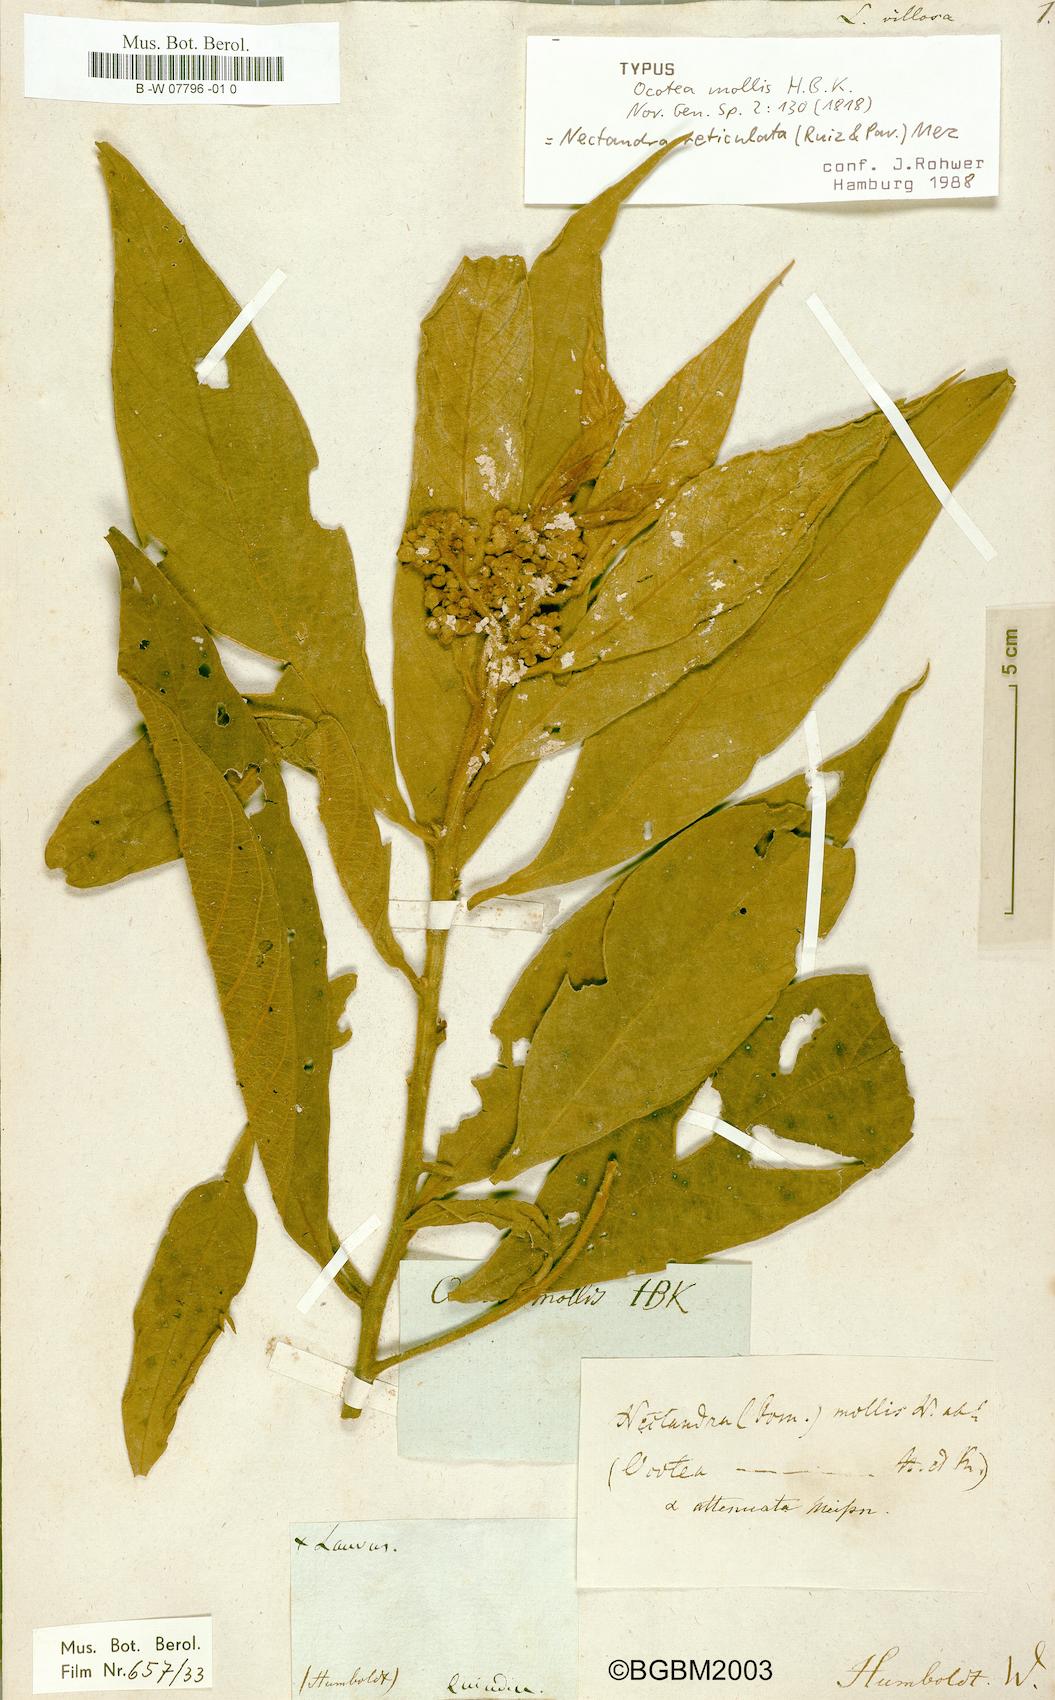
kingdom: Plantae
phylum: Tracheophyta
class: Magnoliopsida
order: Laurales
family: Lauraceae
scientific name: Lauraceae
